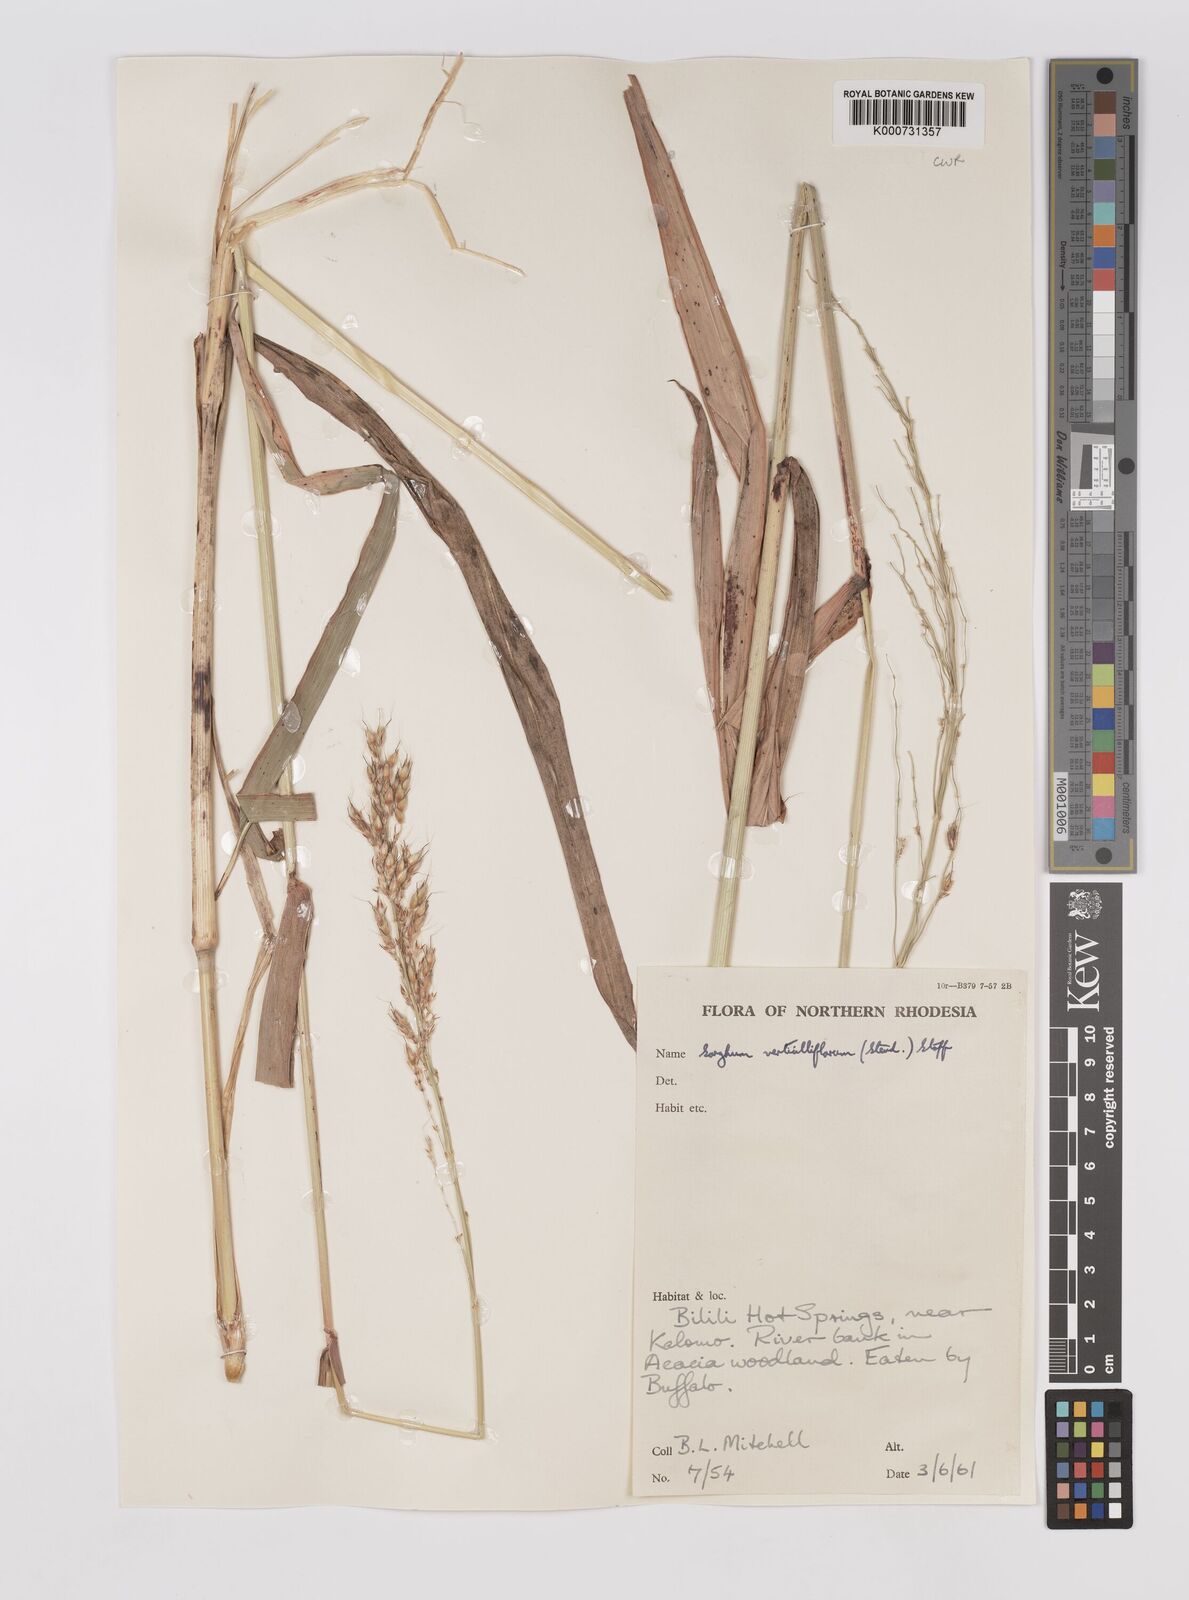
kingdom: Plantae
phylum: Tracheophyta
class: Liliopsida
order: Poales
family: Poaceae
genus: Sorghum
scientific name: Sorghum arundinaceum
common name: Sorghum
